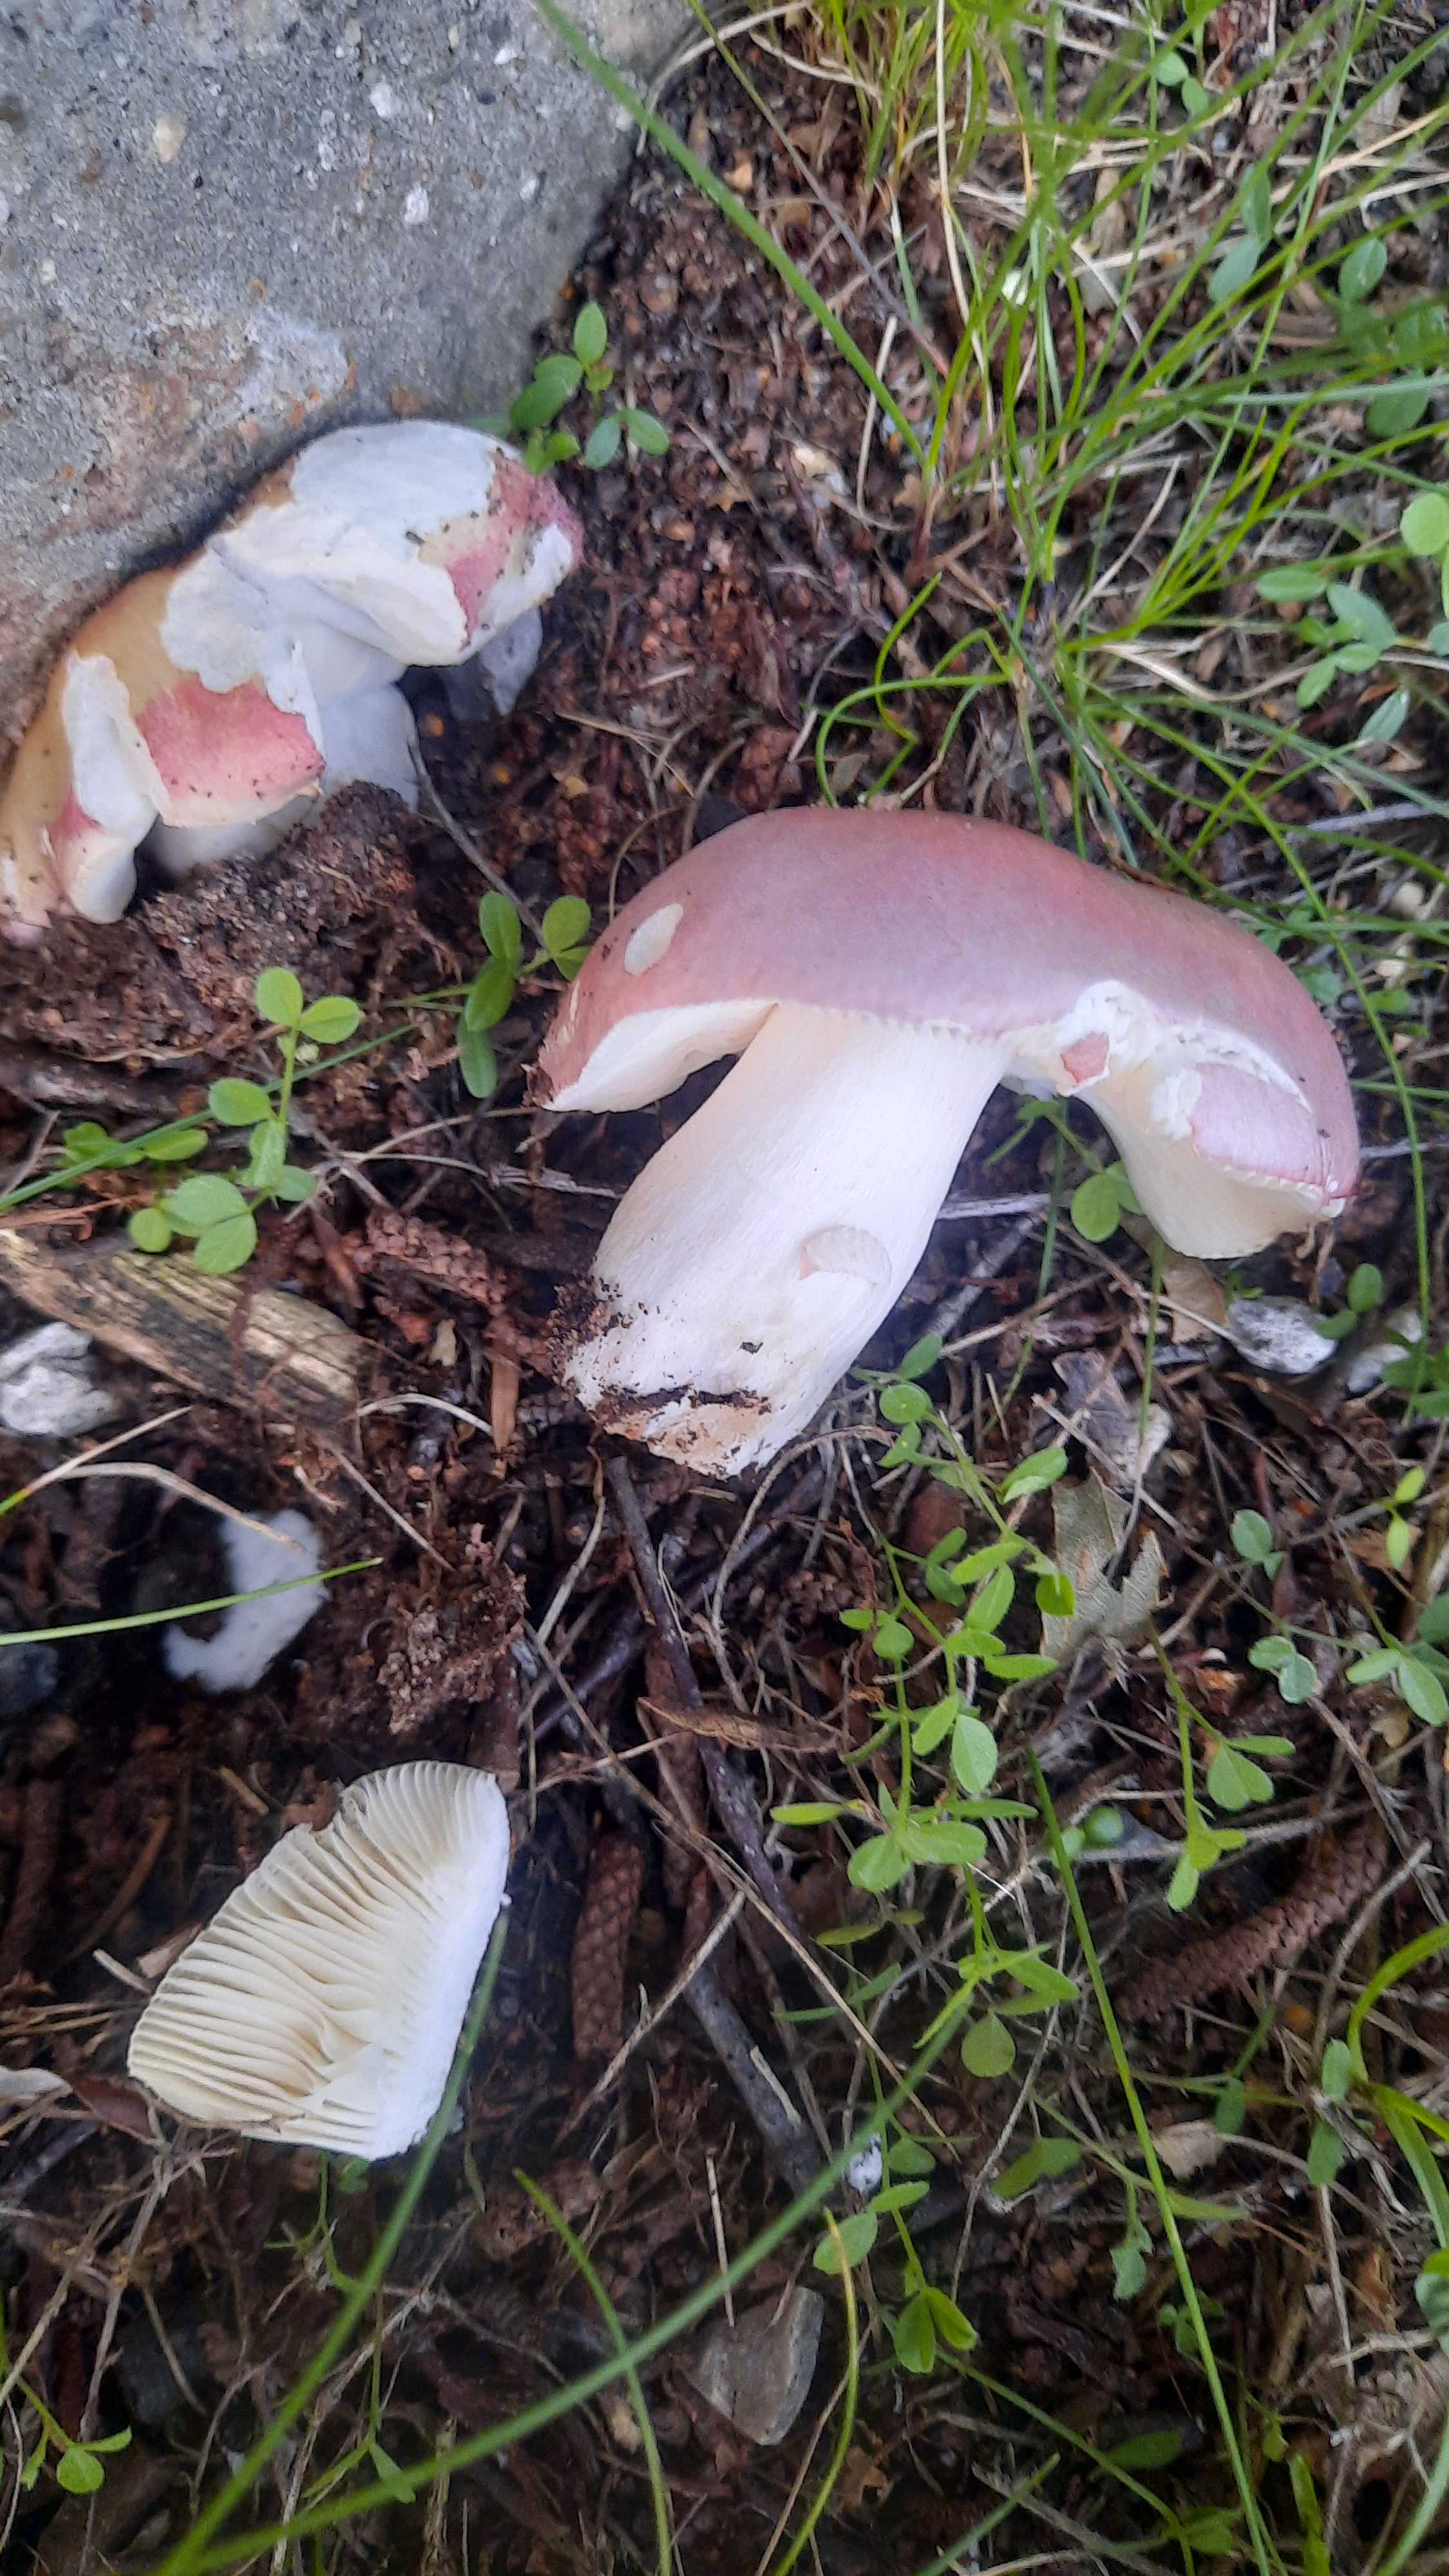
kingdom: Fungi
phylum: Basidiomycota
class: Agaricomycetes
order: Russulales
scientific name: Russulales
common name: skørhatordenen
